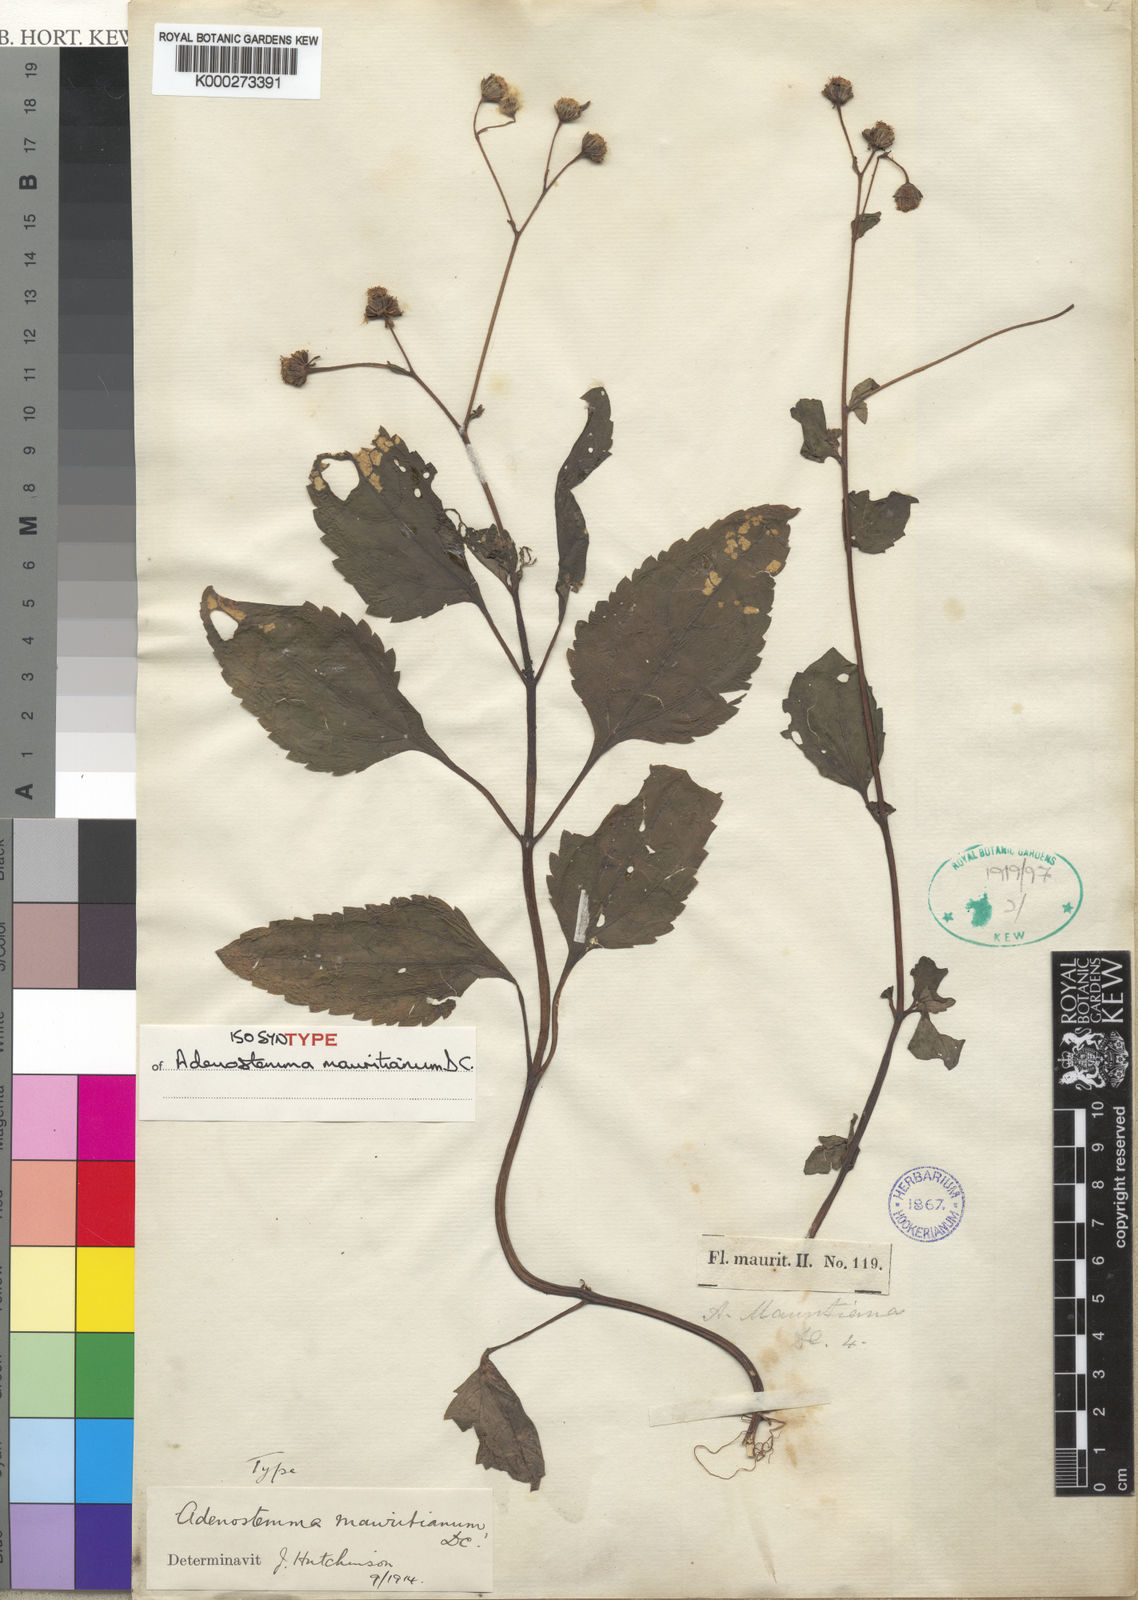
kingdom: Plantae
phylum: Tracheophyta
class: Magnoliopsida
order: Asterales
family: Asteraceae
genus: Adenostemma
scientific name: Adenostemma mauritianum
